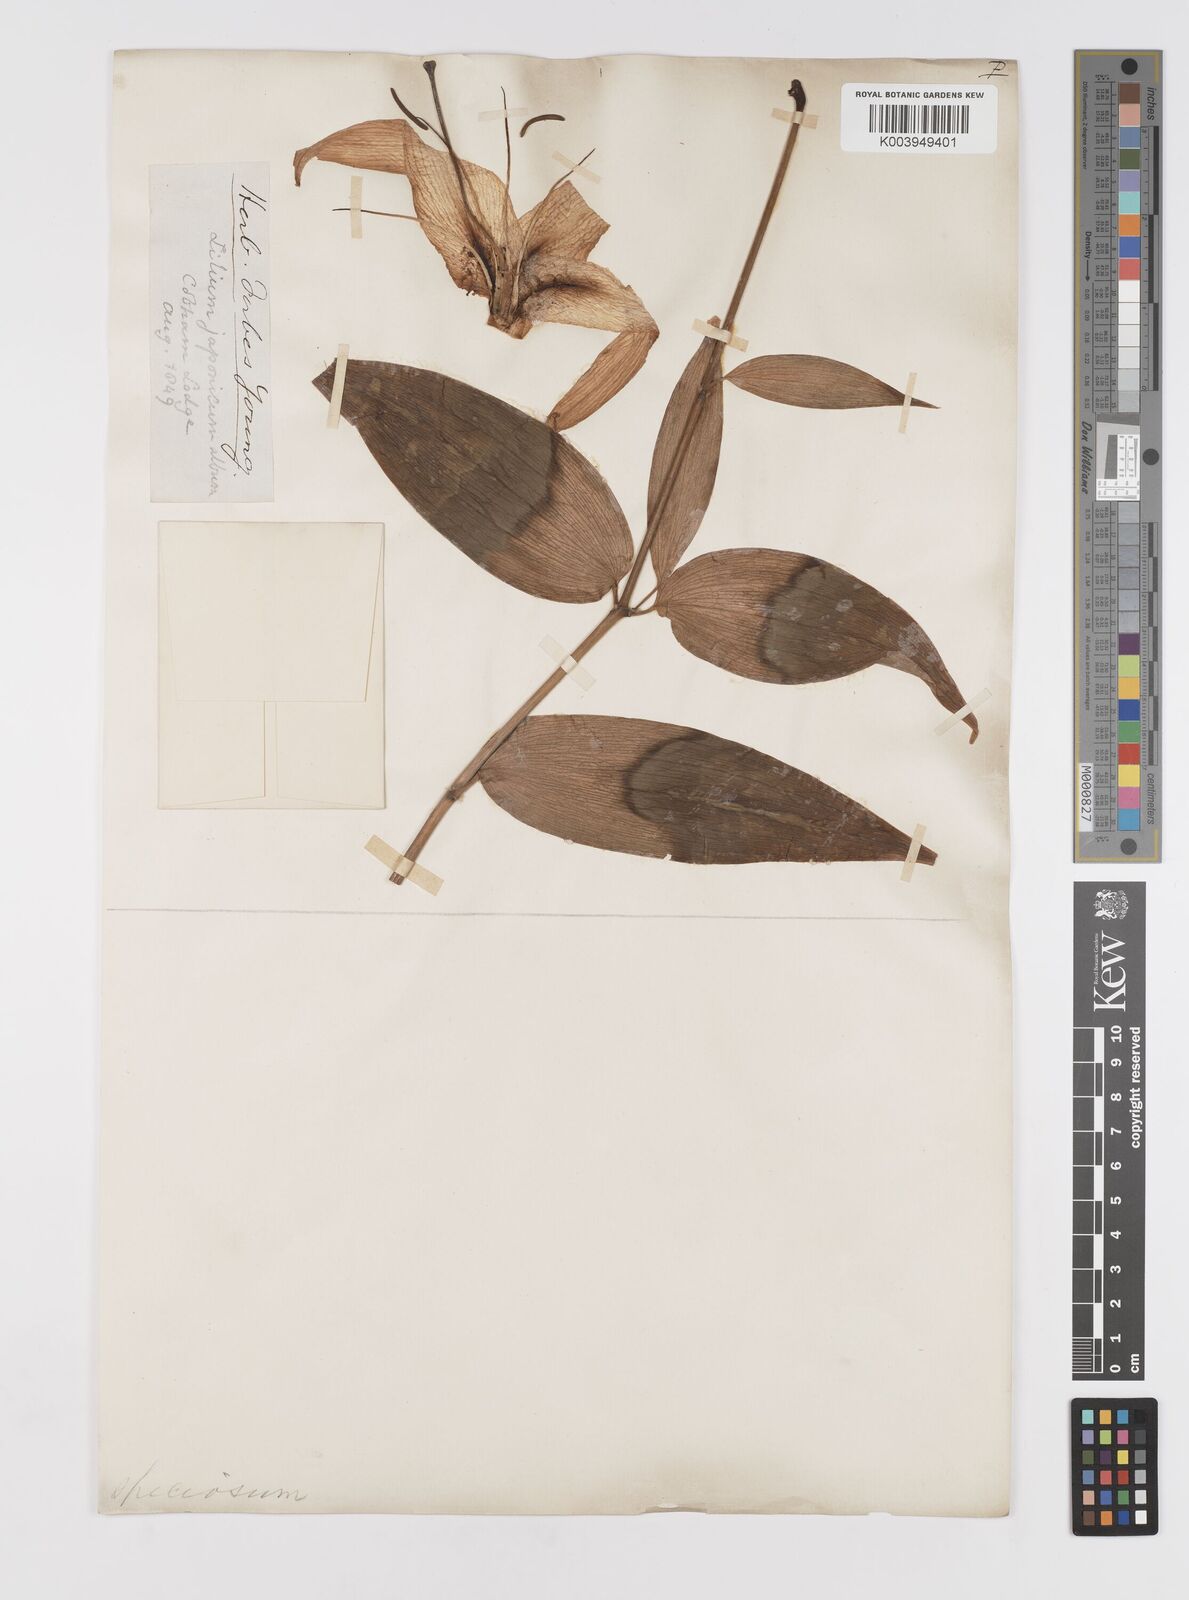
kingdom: Plantae
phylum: Tracheophyta
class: Liliopsida
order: Liliales
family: Liliaceae
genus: Lilium
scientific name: Lilium speciosum
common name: Japanese lily
